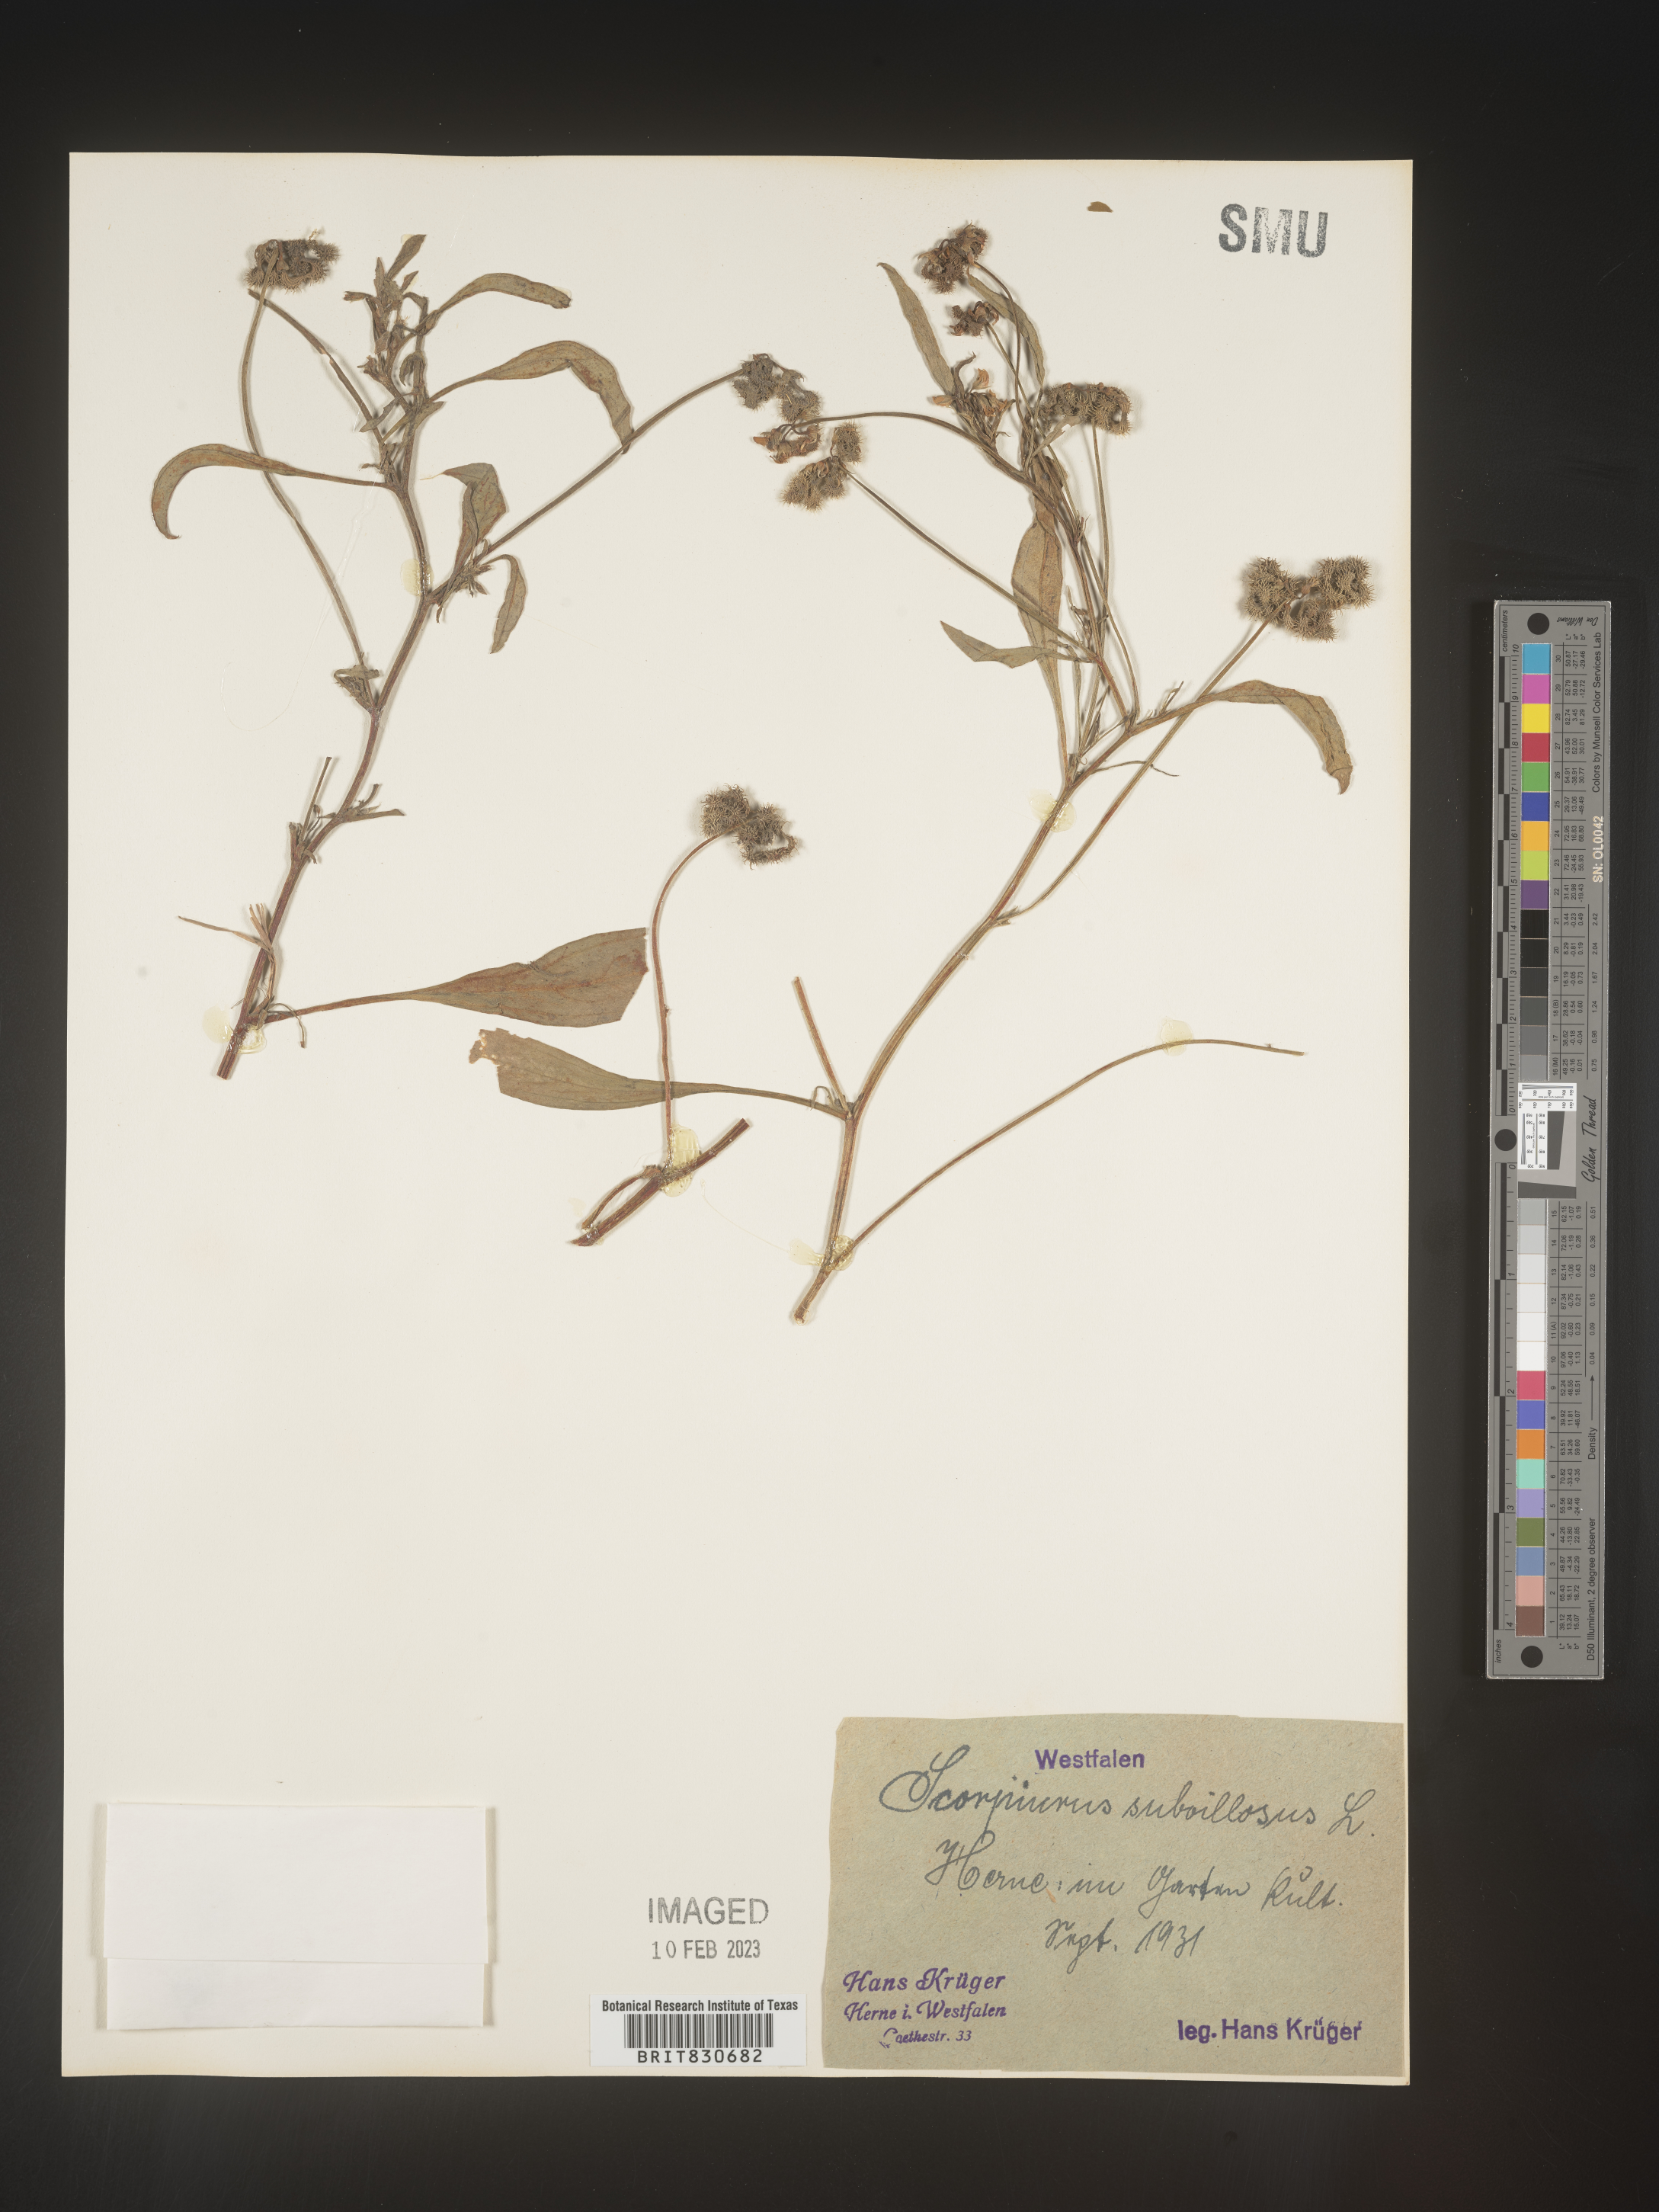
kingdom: Plantae
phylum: Tracheophyta
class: Magnoliopsida
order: Fabales
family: Fabaceae
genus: Scorpiurus
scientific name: Scorpiurus
